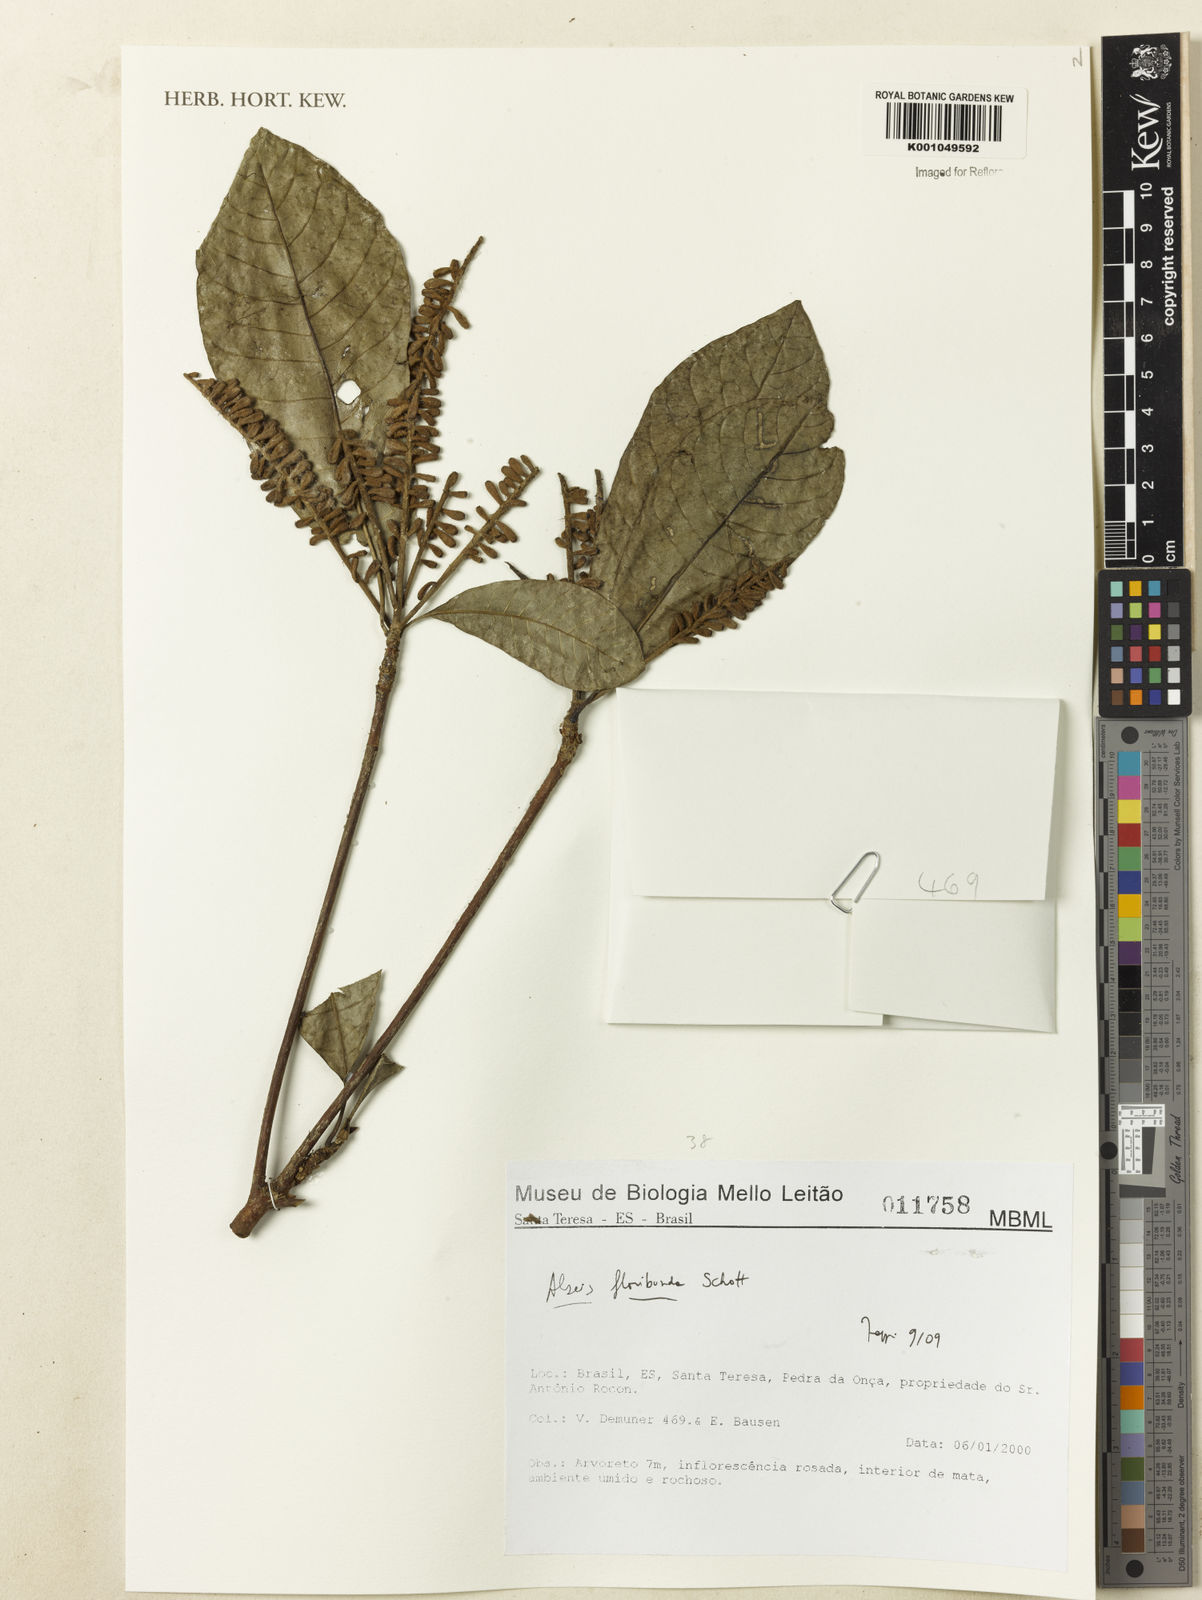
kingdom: Plantae
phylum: Tracheophyta
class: Magnoliopsida
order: Gentianales
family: Rubiaceae
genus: Alseis
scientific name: Alseis floribunda
